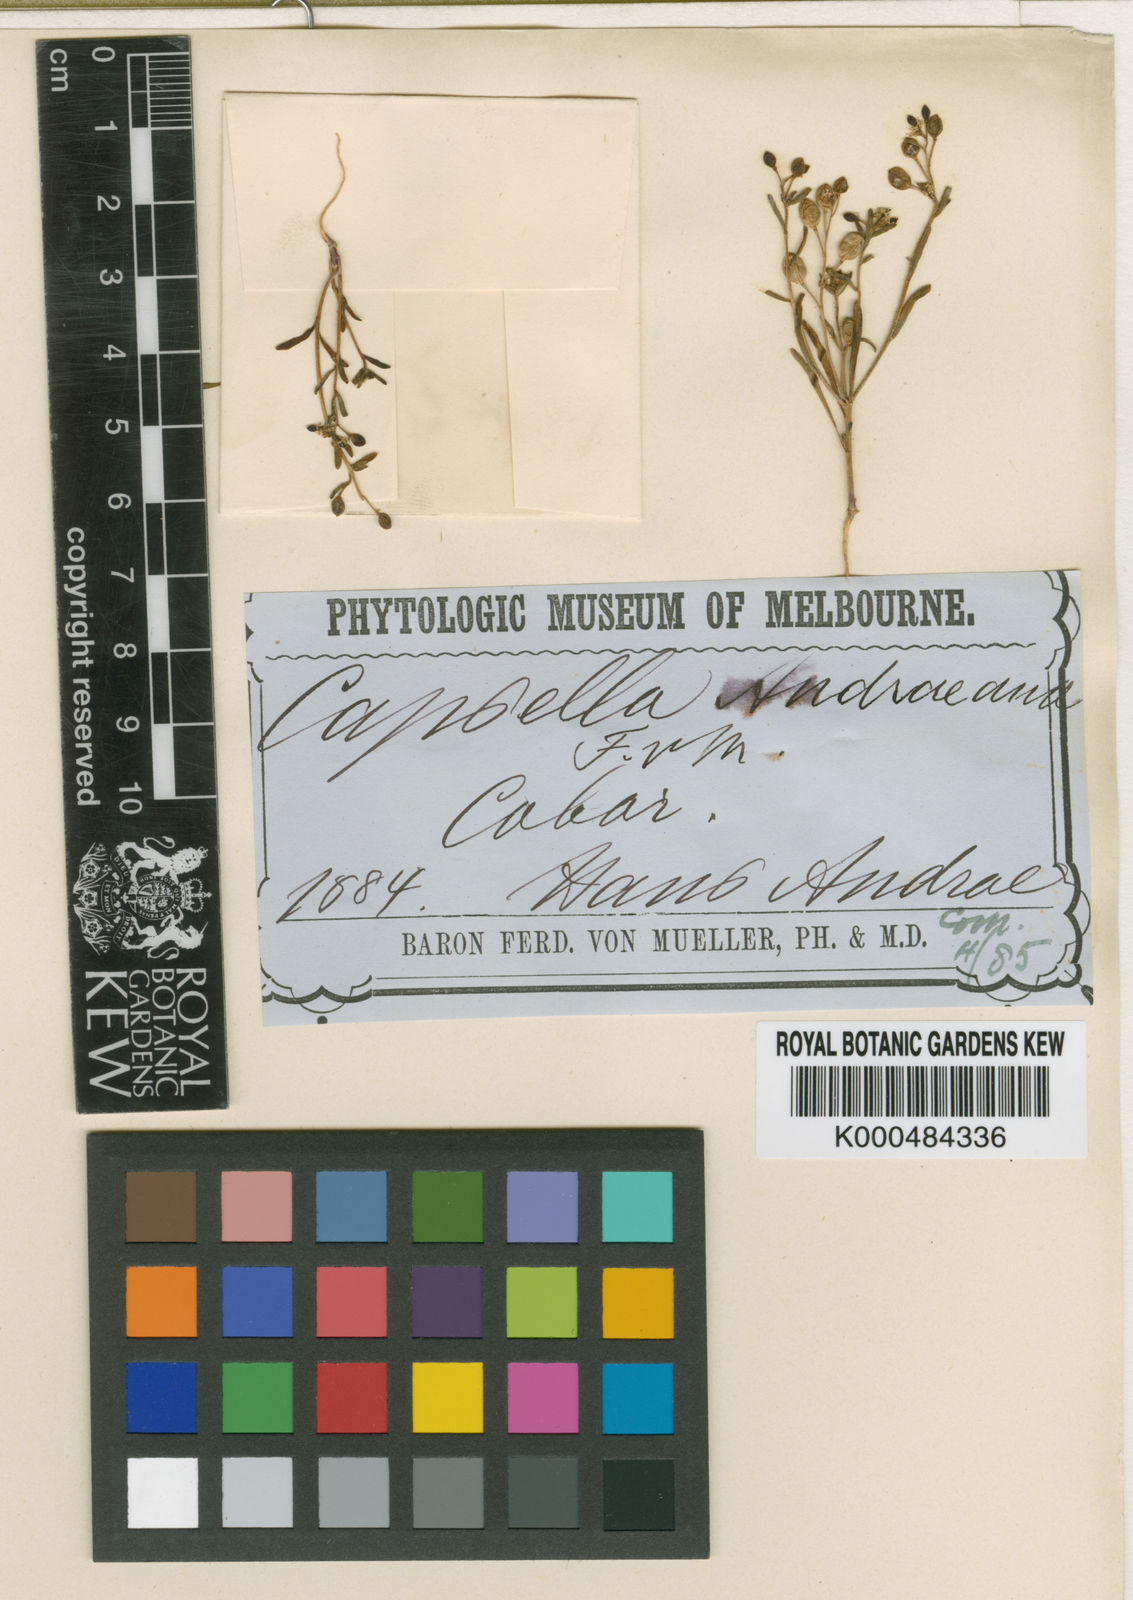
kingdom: Plantae
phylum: Tracheophyta
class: Magnoliopsida
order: Brassicales
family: Brassicaceae
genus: Cuphonotus
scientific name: Cuphonotus andraeanus
